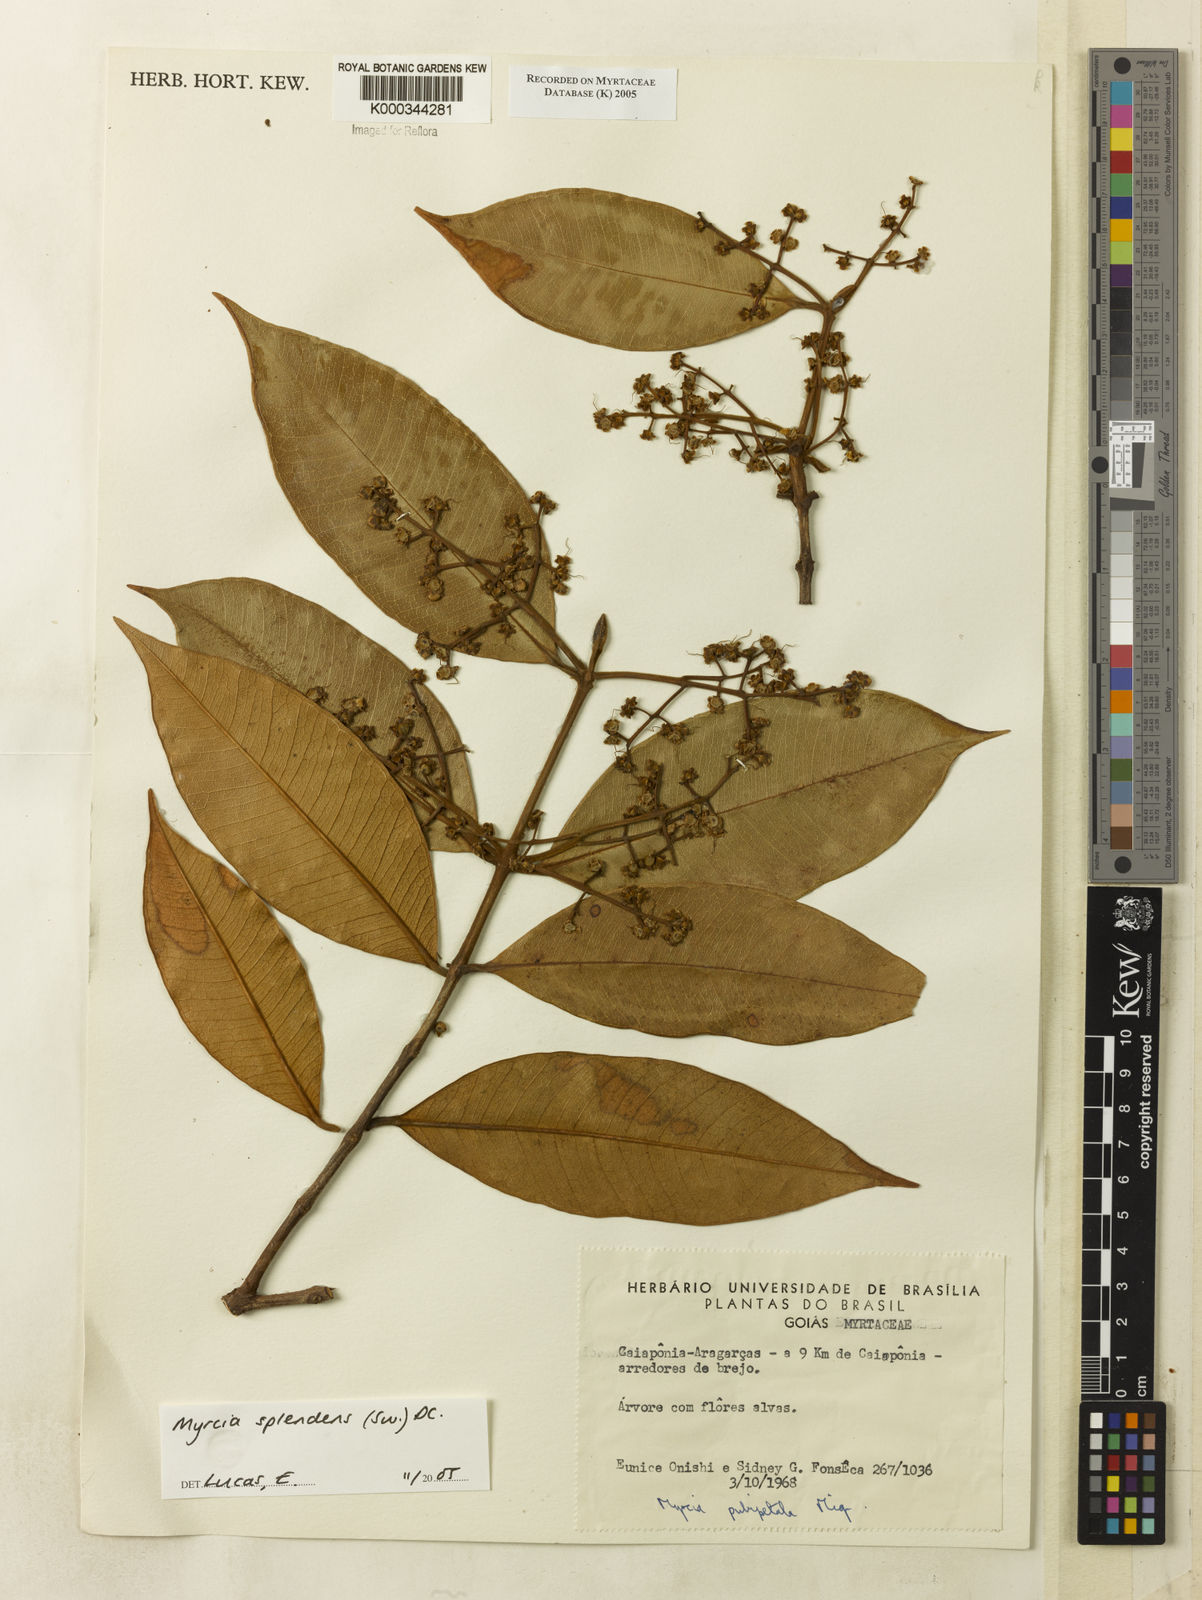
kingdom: Plantae
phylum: Tracheophyta
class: Magnoliopsida
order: Myrtales
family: Myrtaceae
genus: Myrcia
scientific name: Myrcia splendens
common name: Surinam cherry
